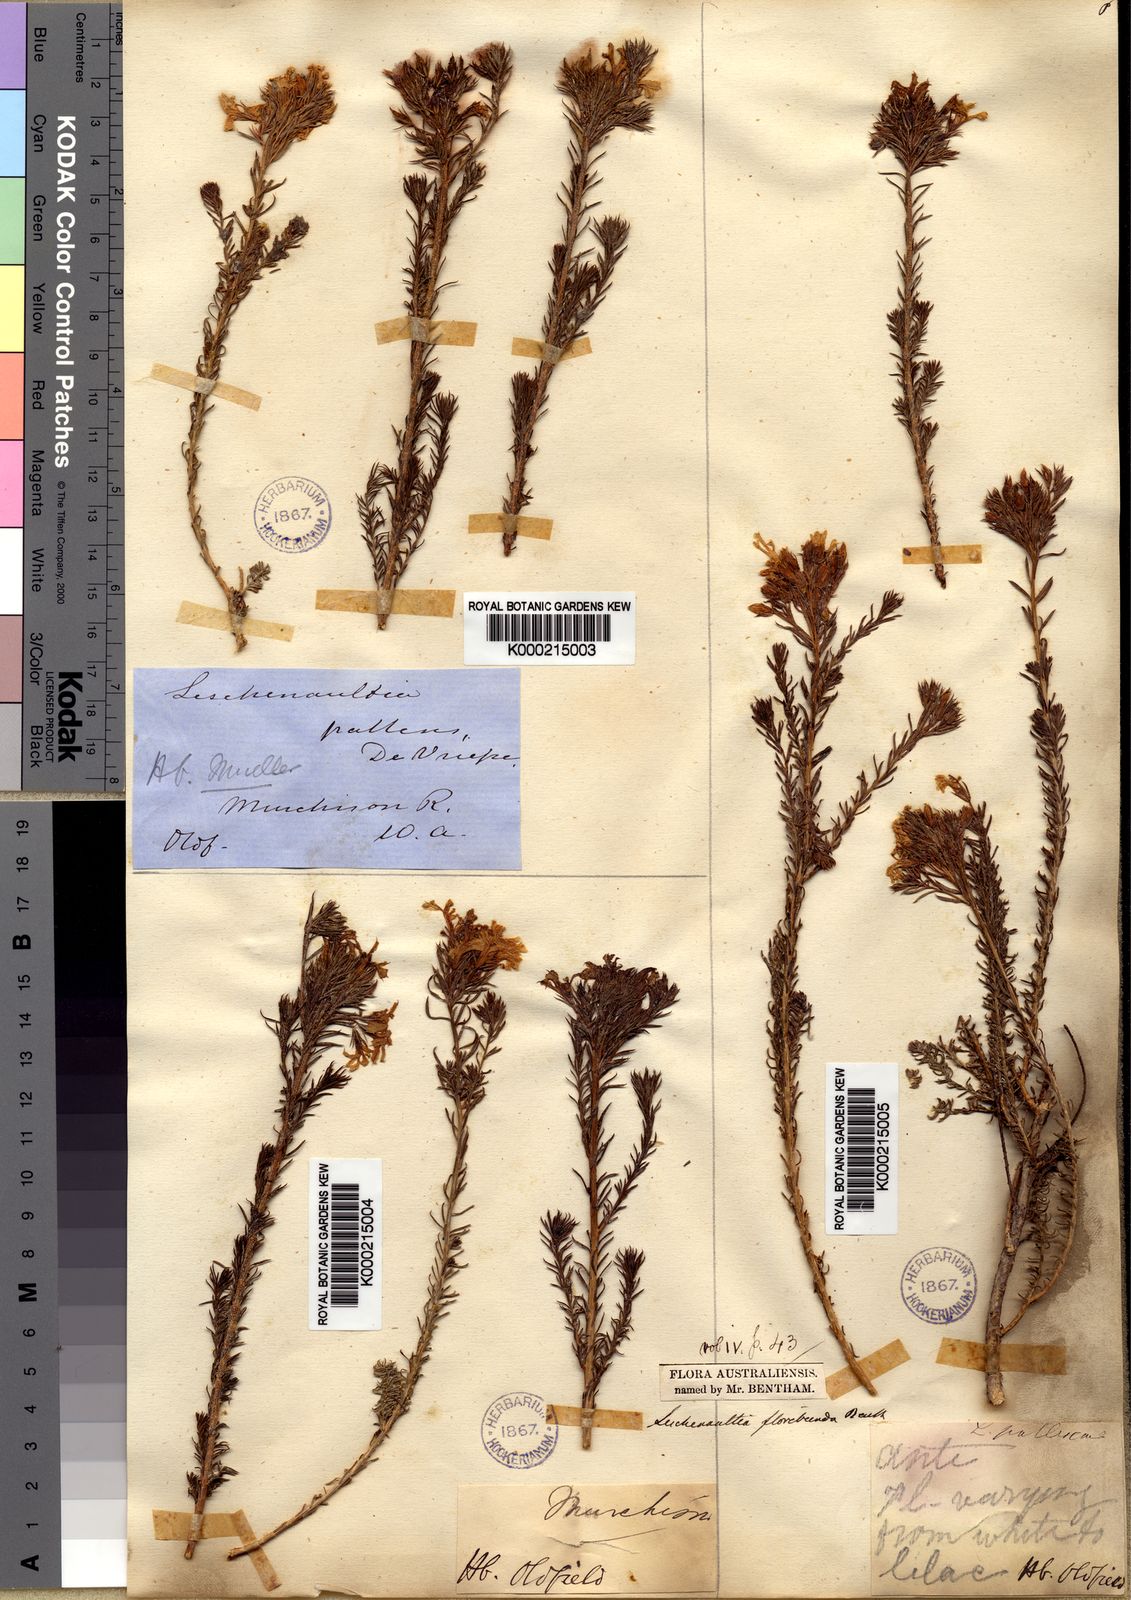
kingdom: Plantae
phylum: Tracheophyta
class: Magnoliopsida
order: Asterales
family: Goodeniaceae
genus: Leschenaultia
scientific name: Leschenaultia floribunda
